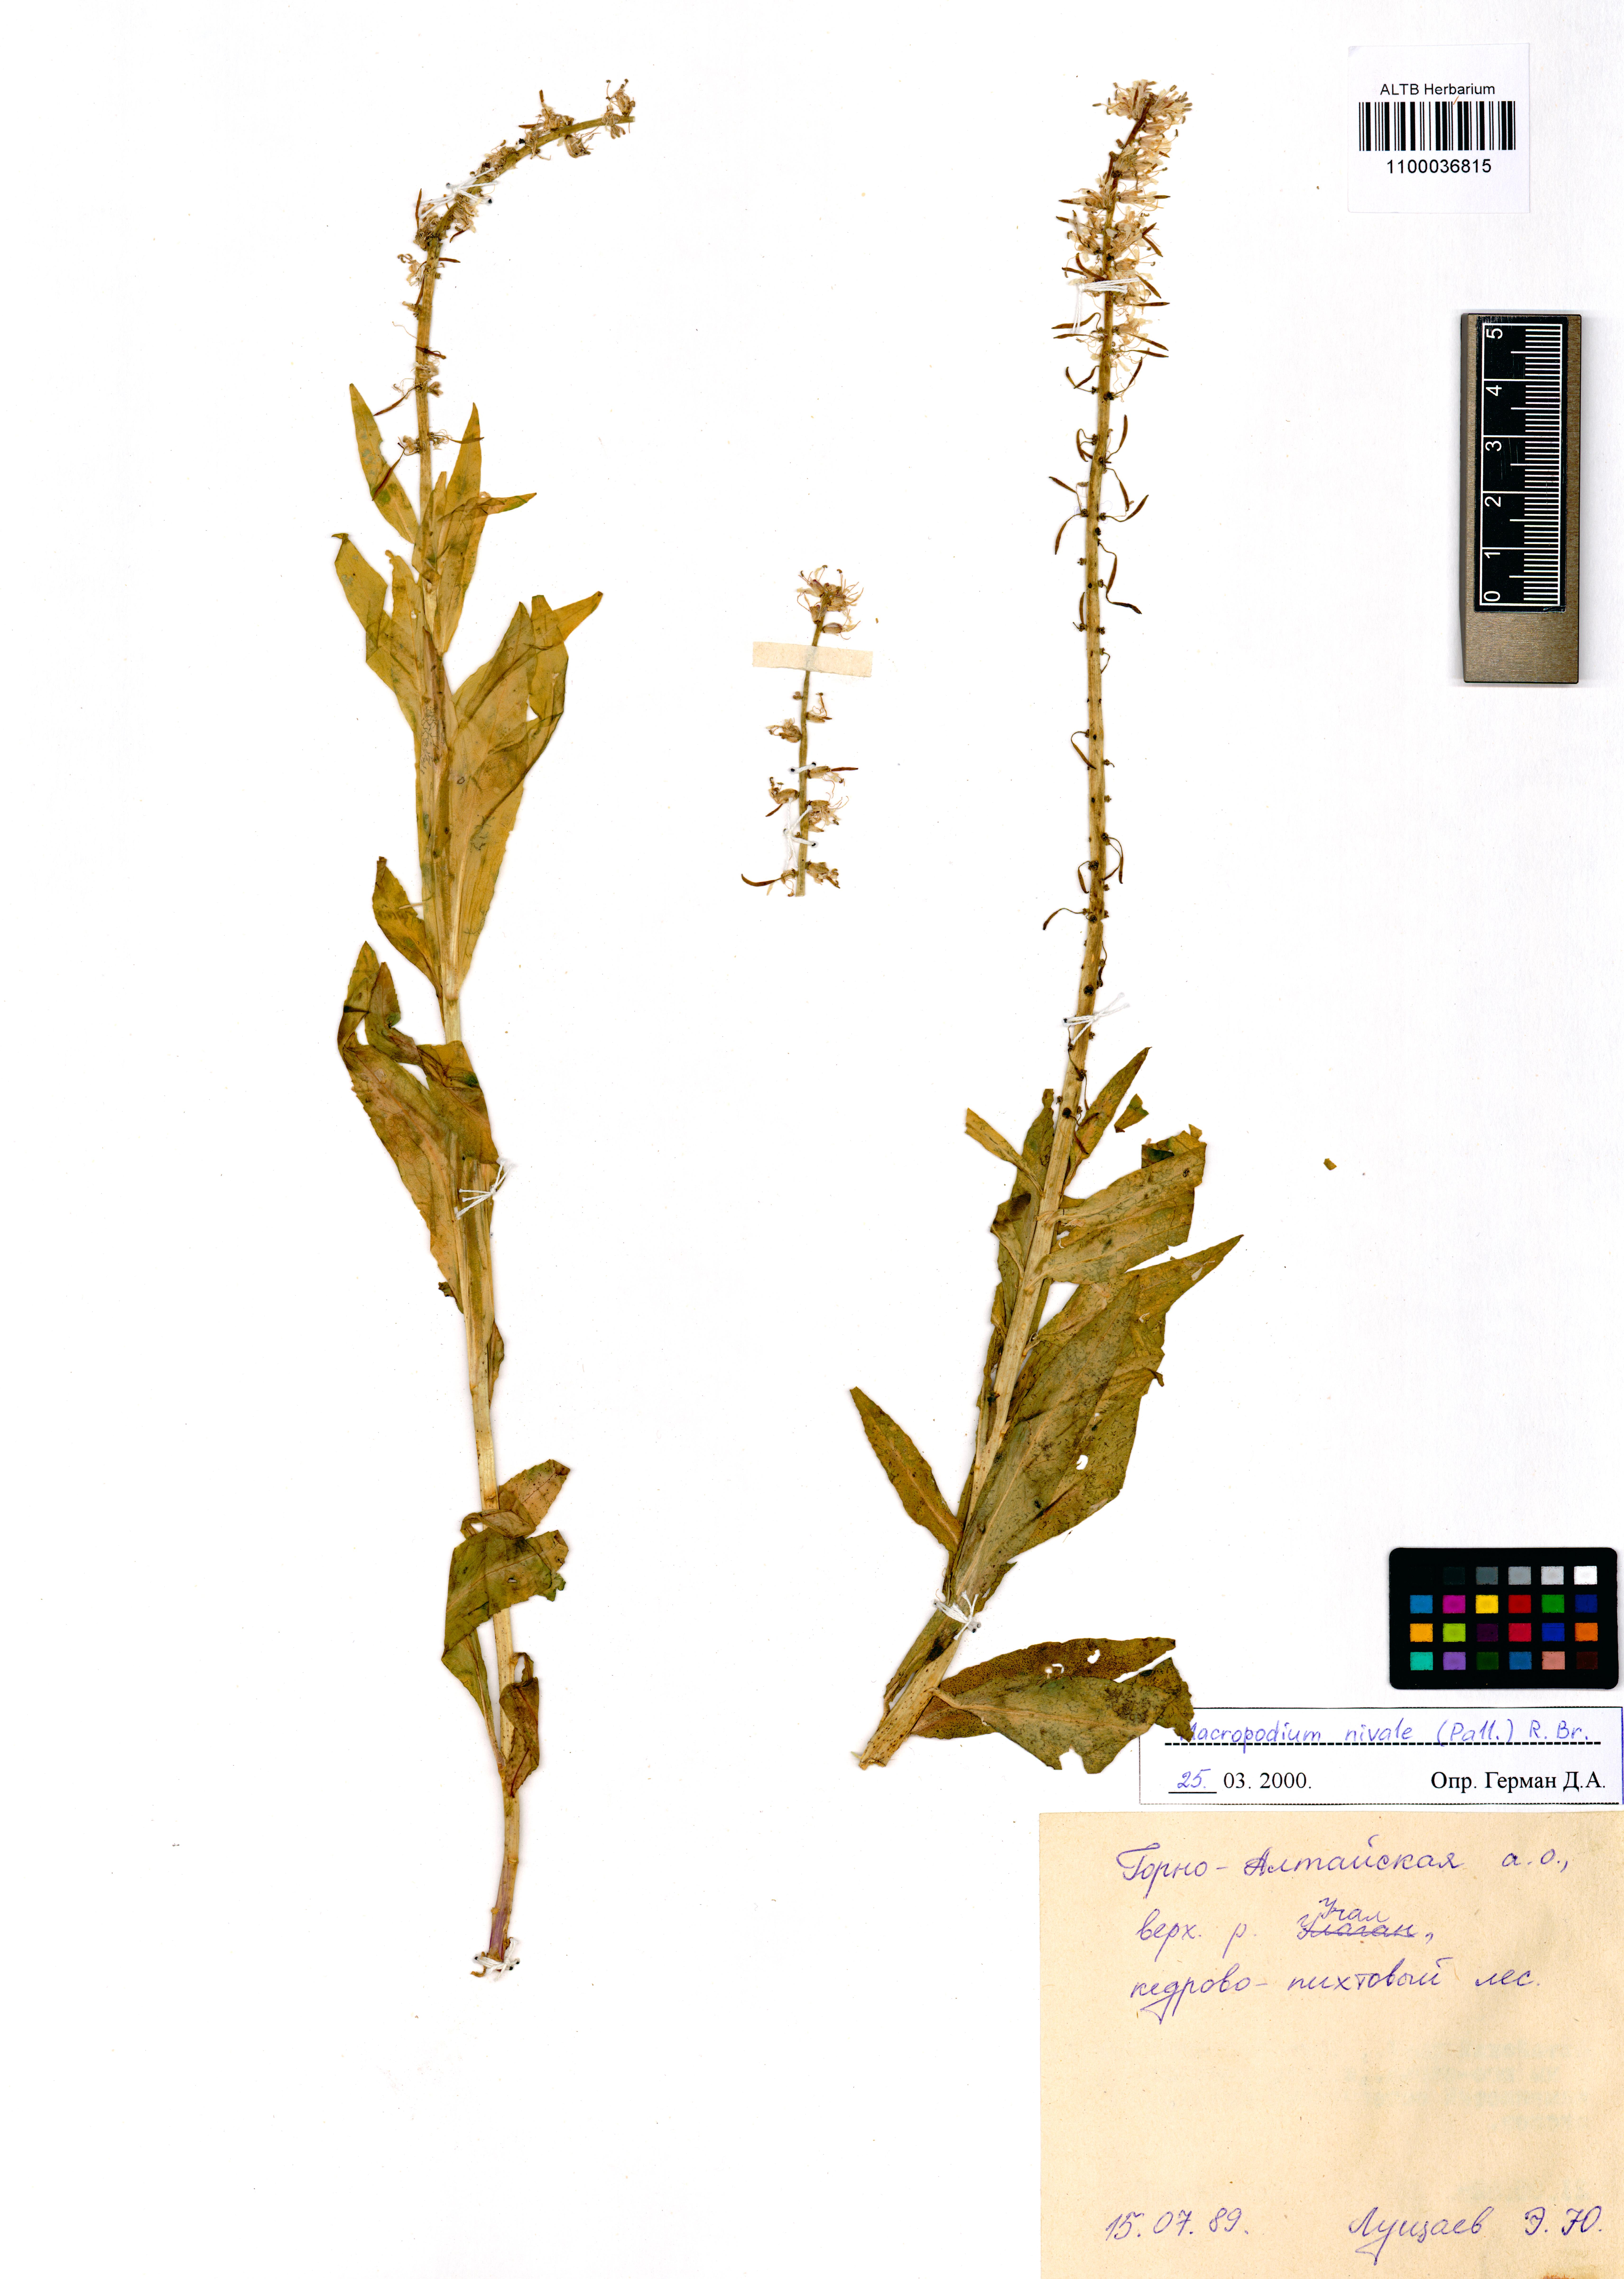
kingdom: Plantae
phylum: Tracheophyta
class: Magnoliopsida
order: Brassicales
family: Brassicaceae
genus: Macropodium
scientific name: Macropodium nivale
